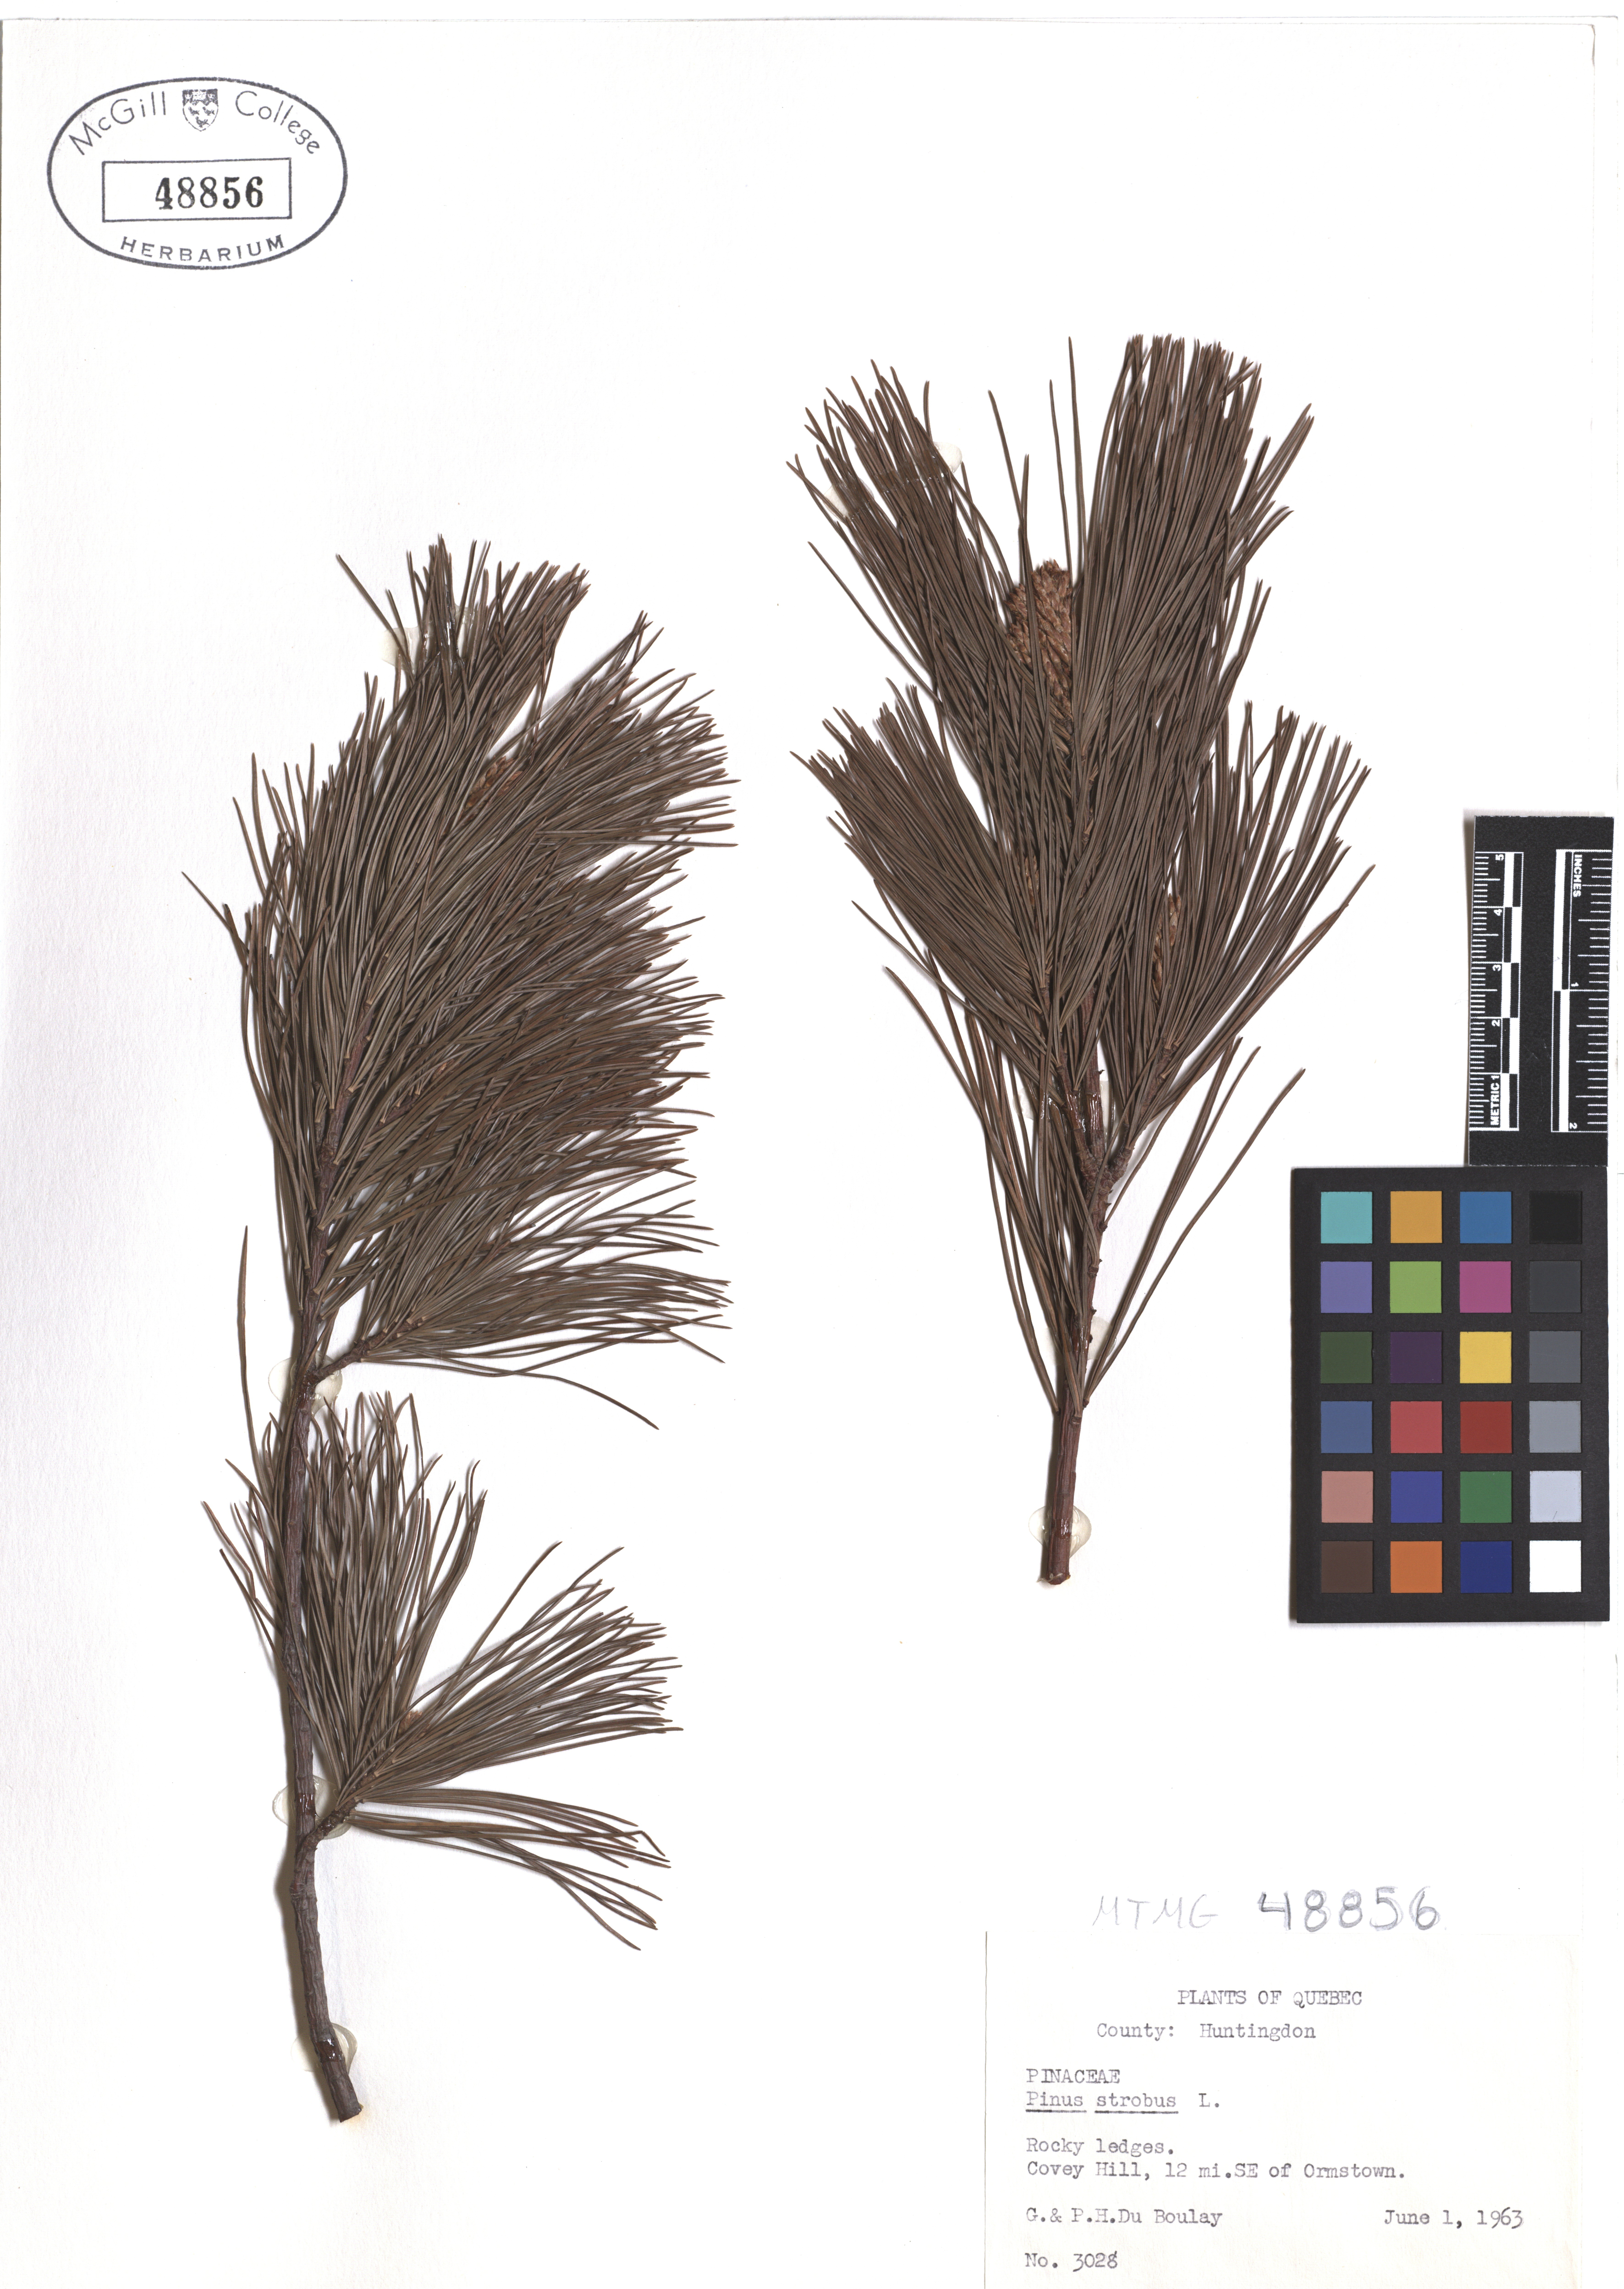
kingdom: Plantae
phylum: Tracheophyta
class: Pinopsida
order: Pinales
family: Pinaceae
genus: Pinus
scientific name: Pinus strobus
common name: Weymouth pine
